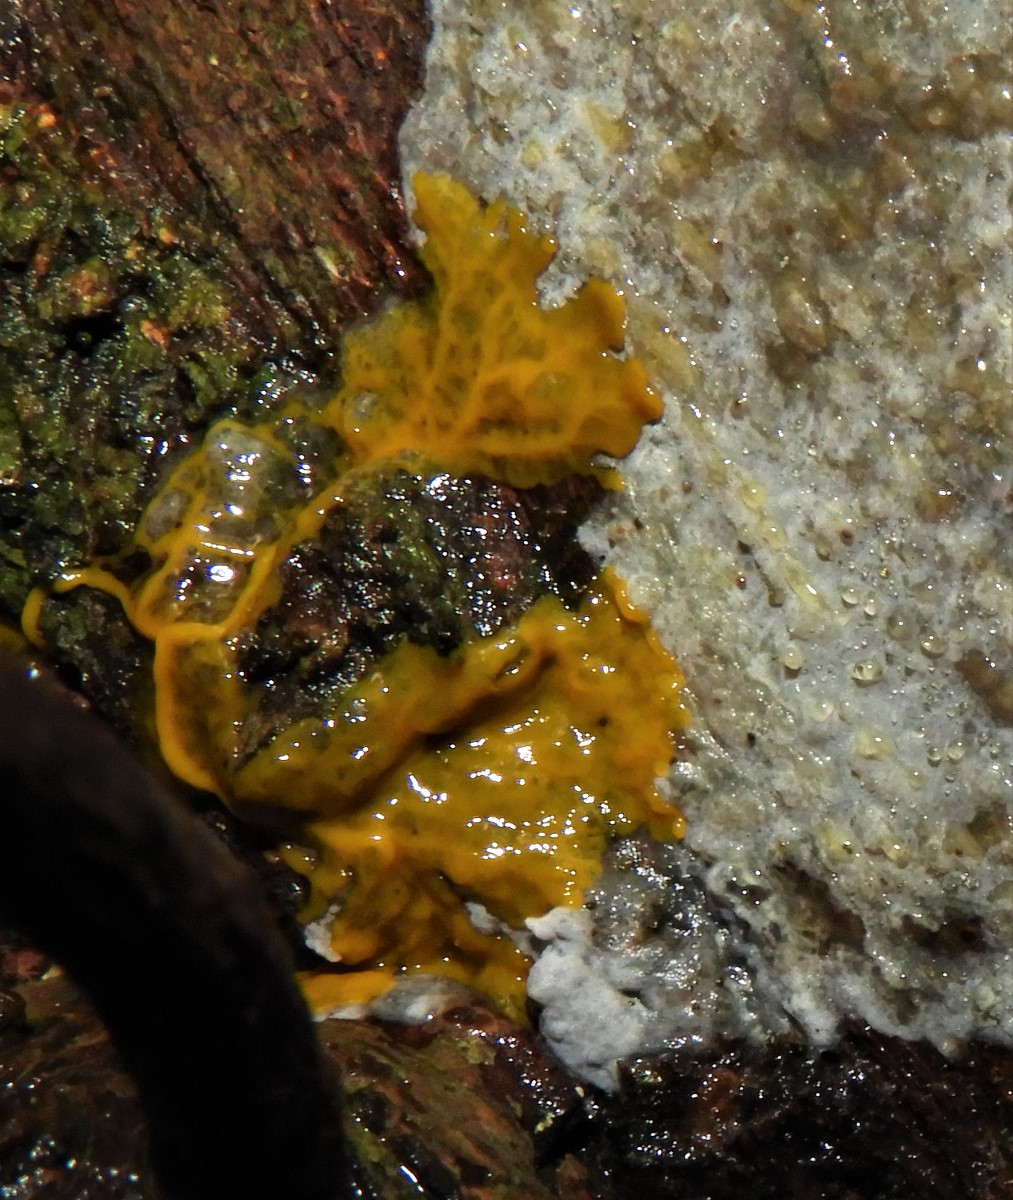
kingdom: Protozoa
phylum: Mycetozoa
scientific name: Mycetozoa
